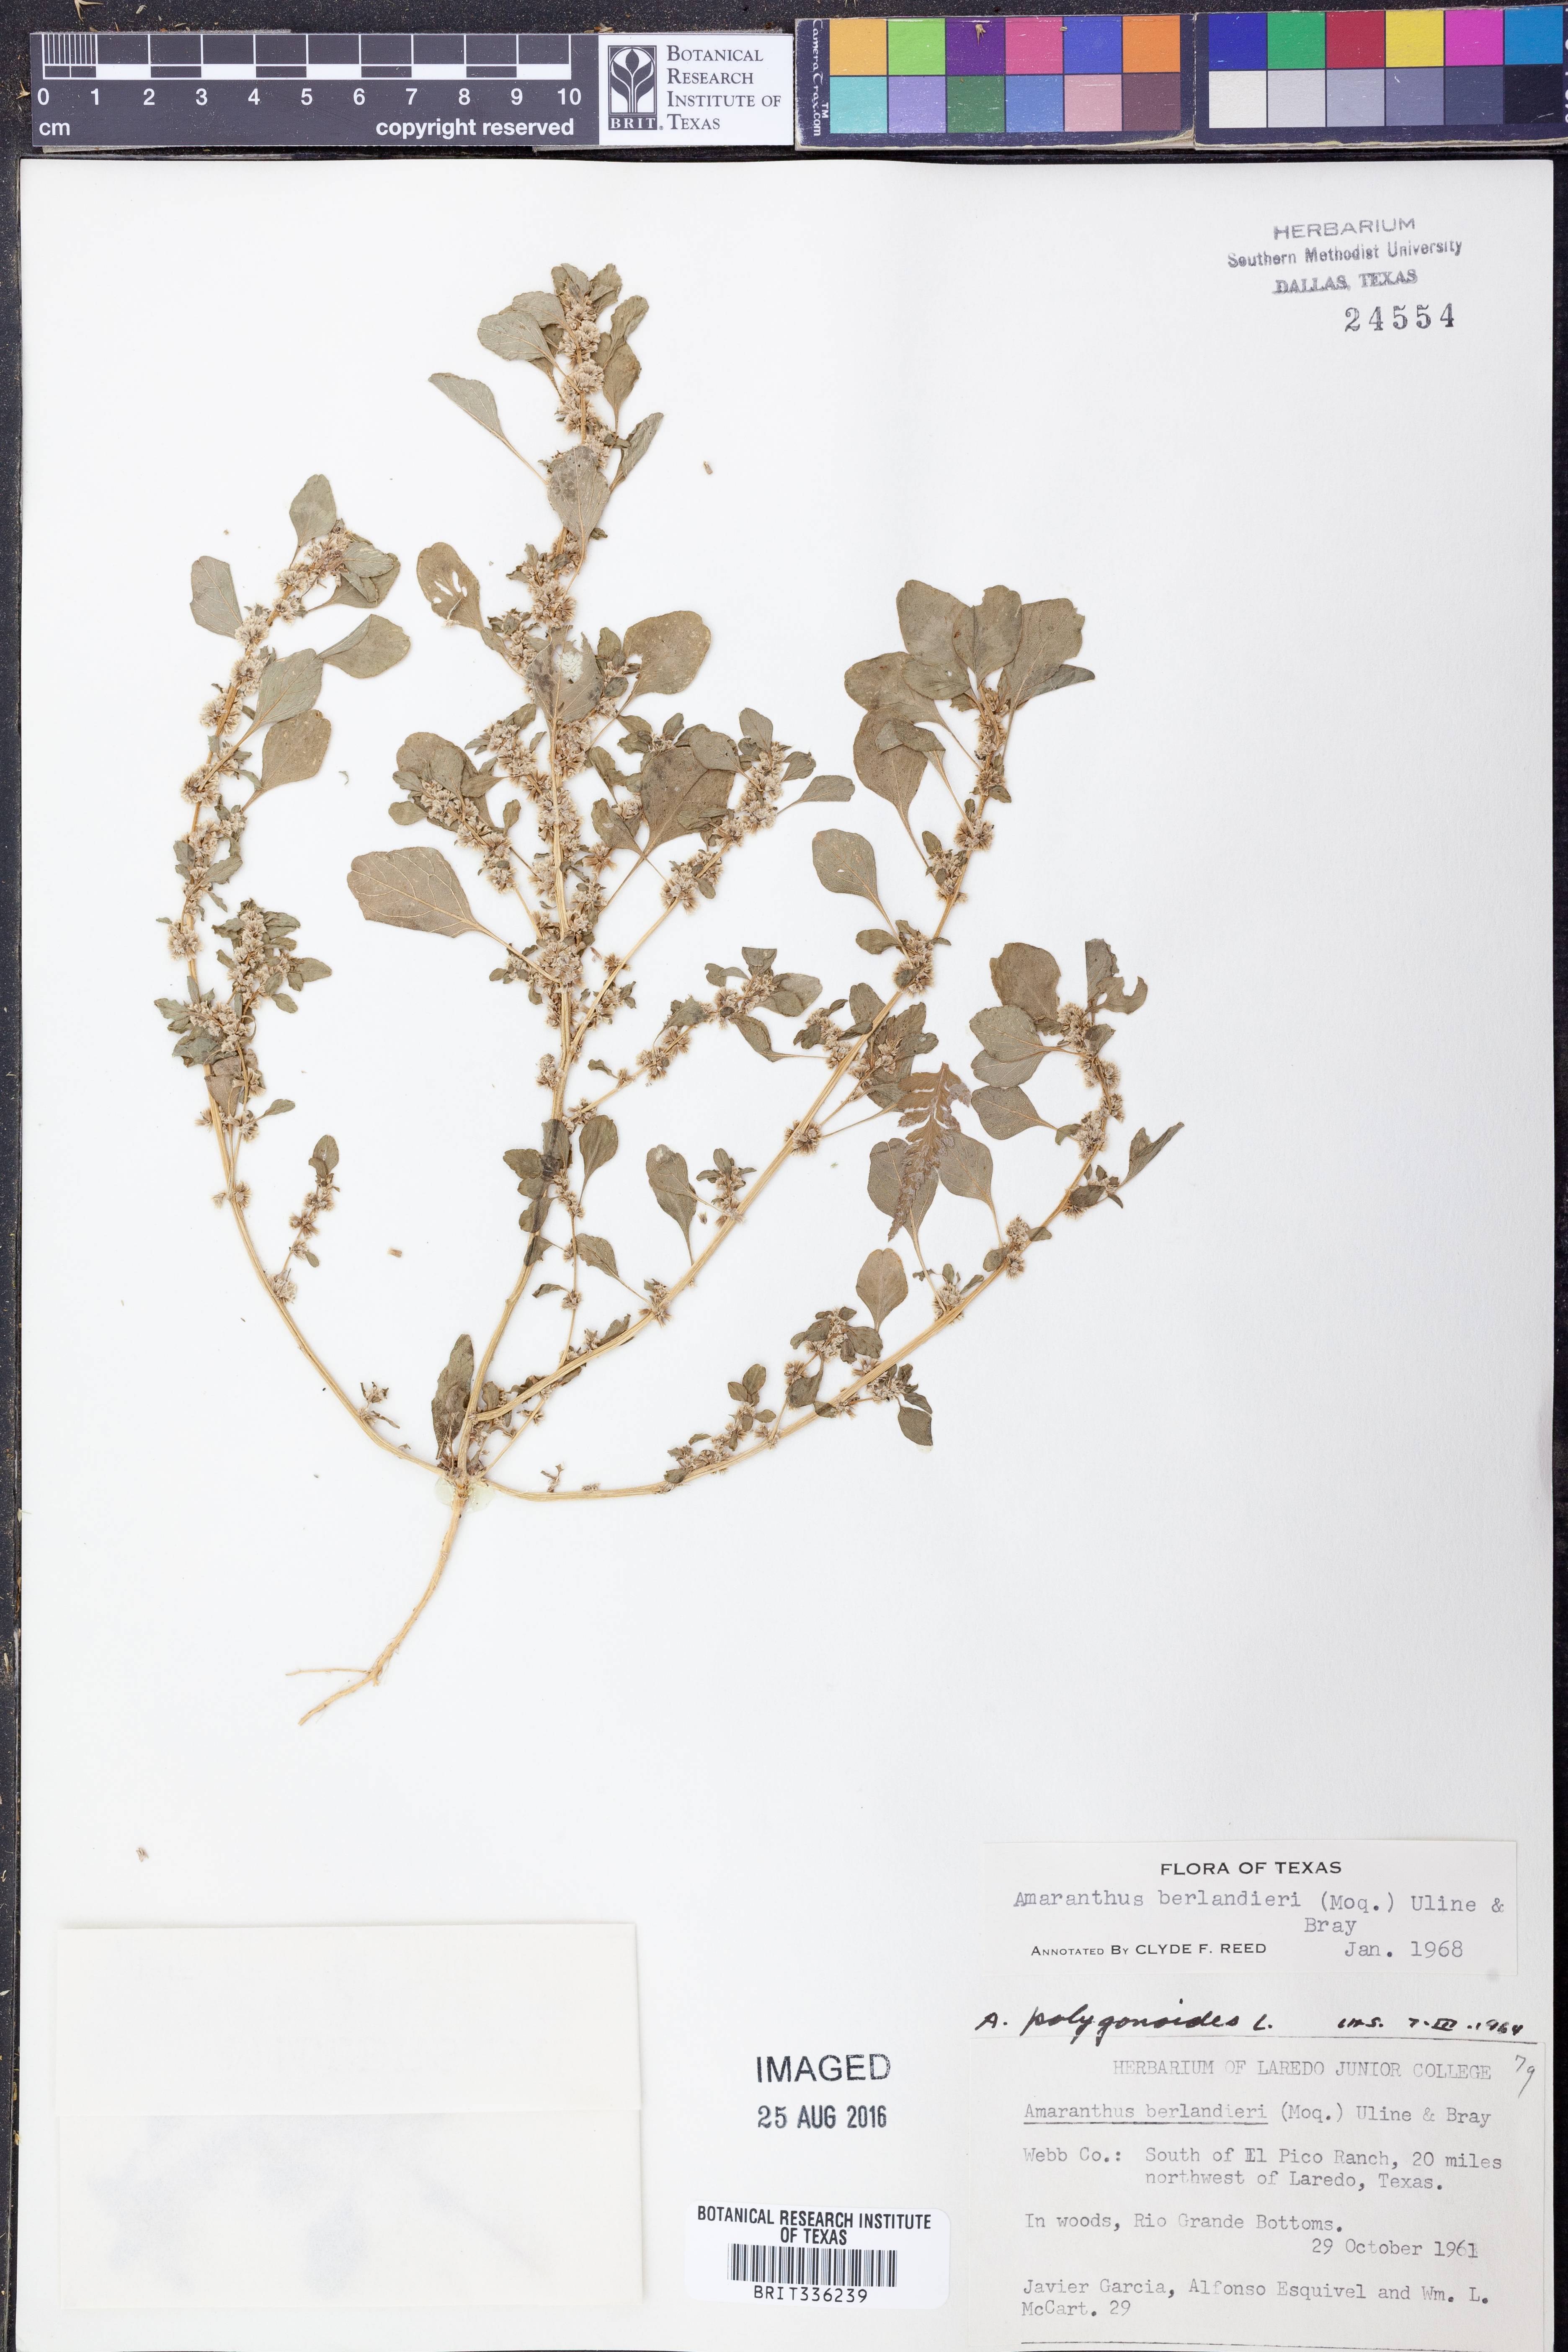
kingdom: Plantae
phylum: Tracheophyta
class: Magnoliopsida
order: Caryophyllales
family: Amaranthaceae
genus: Amaranthus
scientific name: Amaranthus polygonoides
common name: Tropical amaranth
